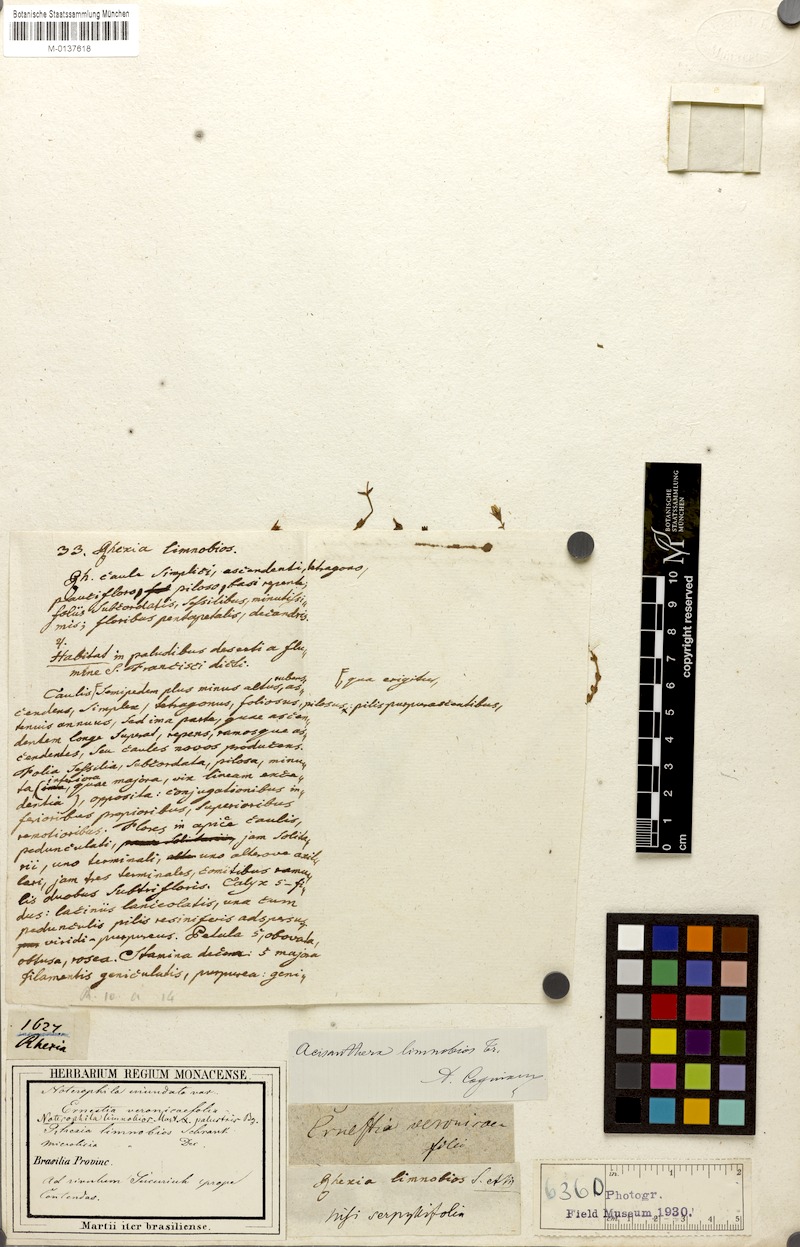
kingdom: Plantae
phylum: Tracheophyta
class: Magnoliopsida
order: Myrtales
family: Melastomataceae
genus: Noterophila
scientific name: Noterophila limnobios
